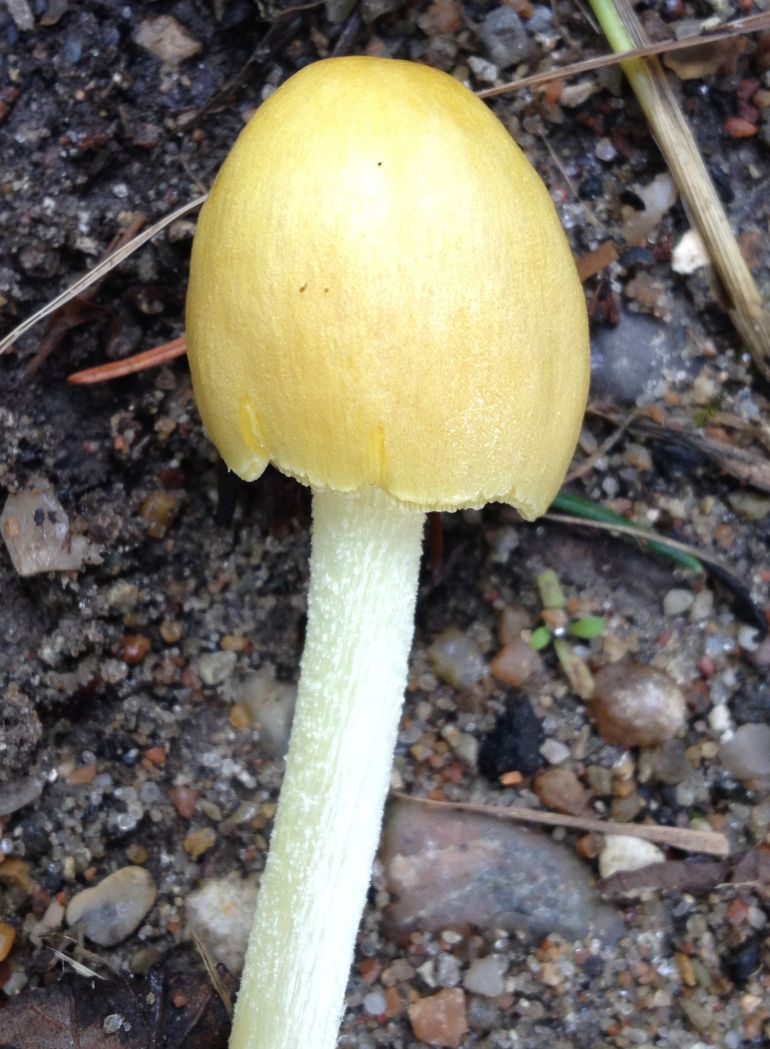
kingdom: Fungi
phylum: Basidiomycota
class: Agaricomycetes
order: Agaricales
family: Bolbitiaceae
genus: Bolbitius
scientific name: Bolbitius titubans
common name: almindelig gulhat
